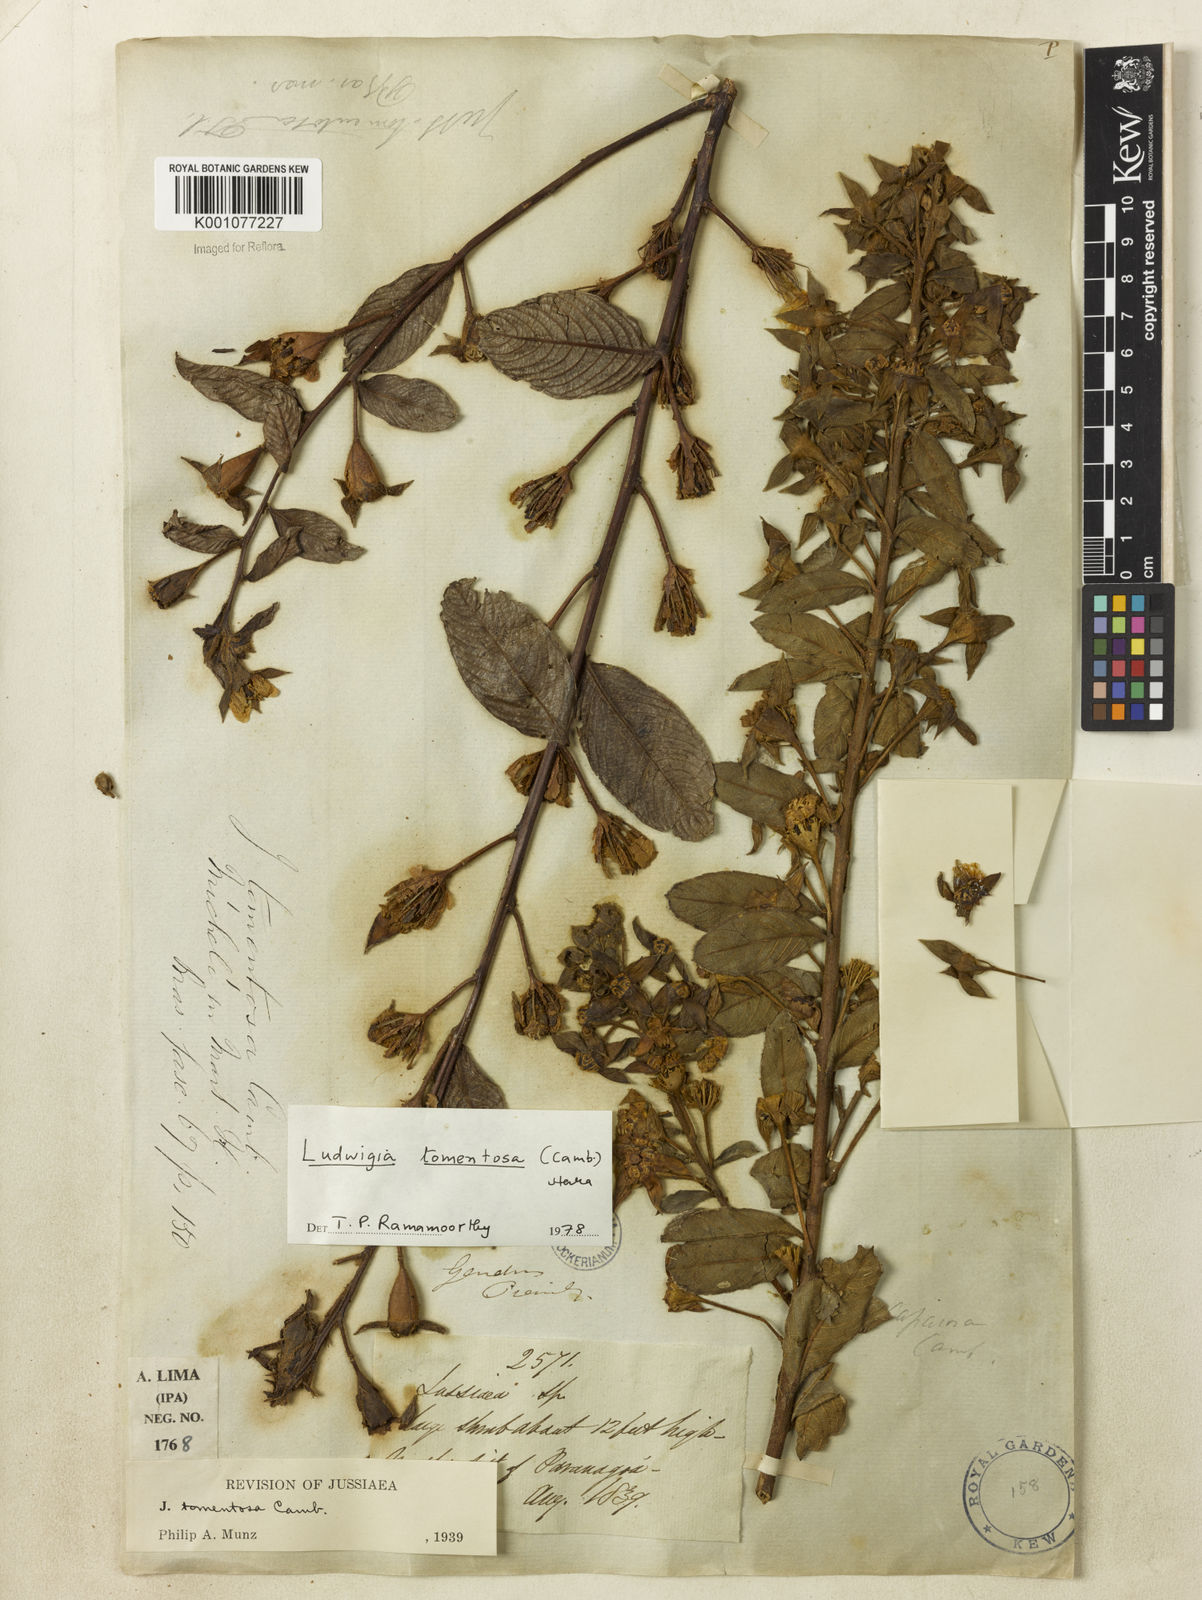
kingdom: Plantae
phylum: Tracheophyta
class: Magnoliopsida
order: Myrtales
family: Onagraceae
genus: Ludwigia
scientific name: Ludwigia tomentosa
